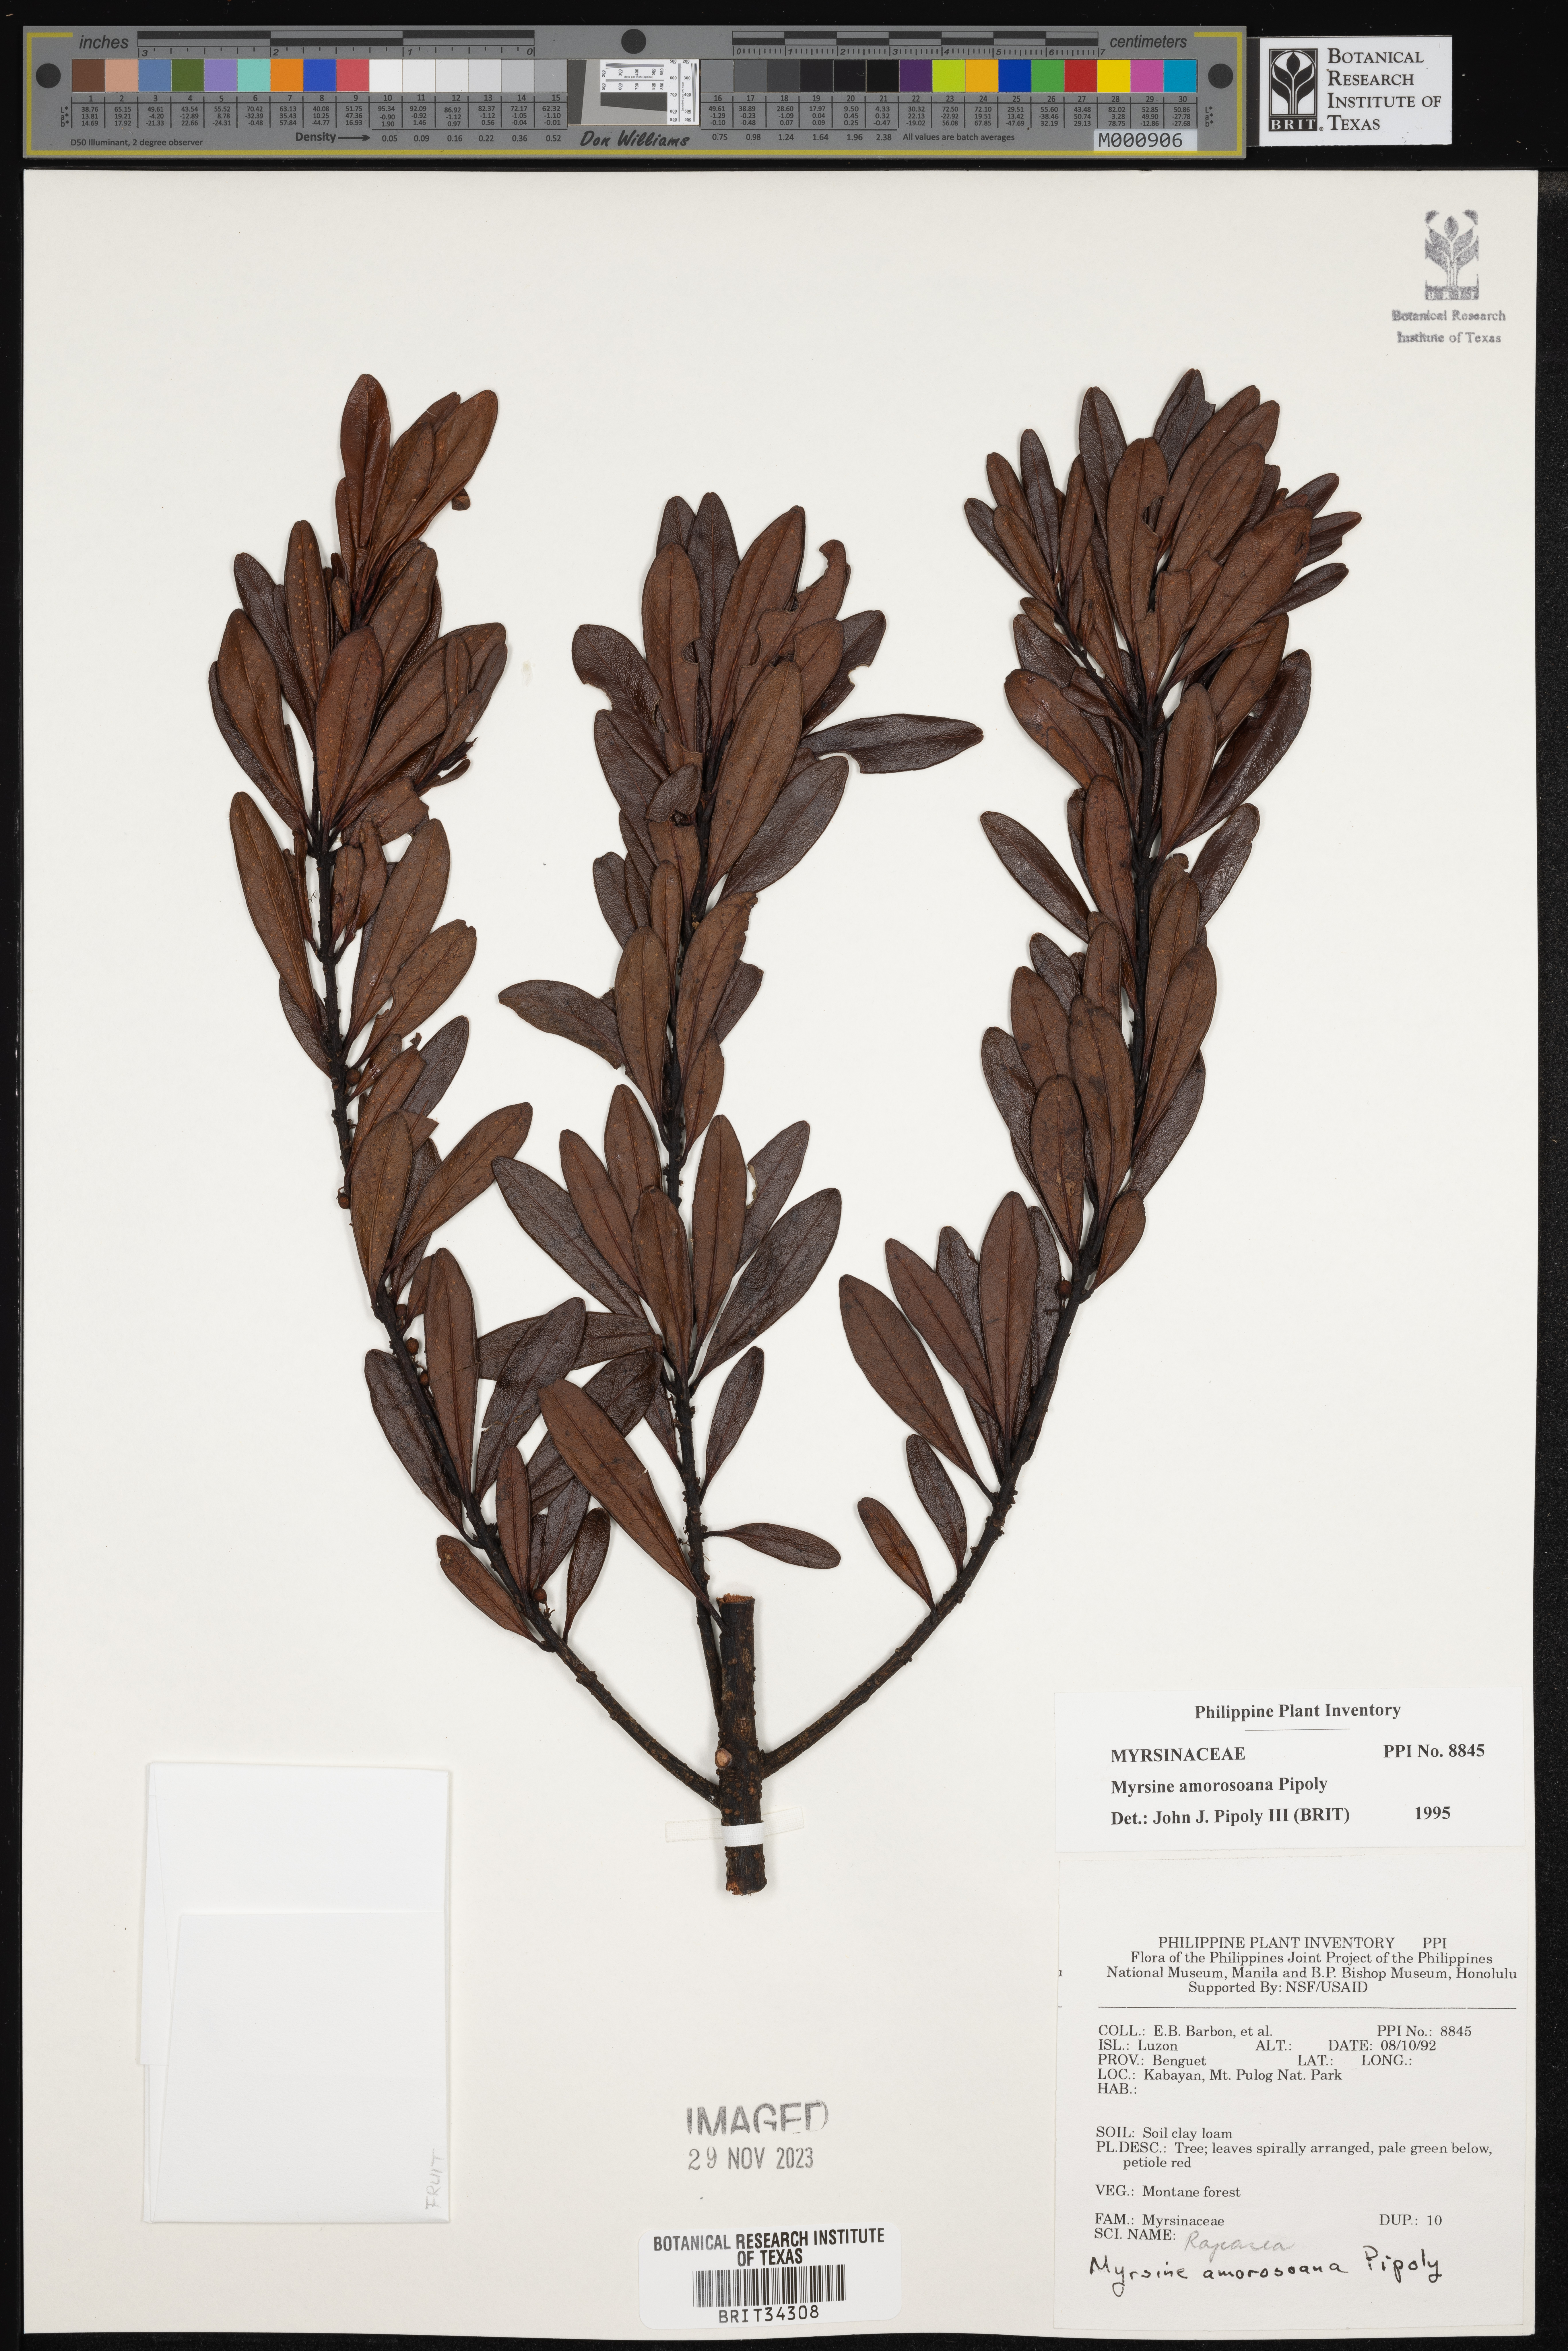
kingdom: Plantae
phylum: Tracheophyta
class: Magnoliopsida
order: Ericales
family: Primulaceae
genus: Myrsine
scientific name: Myrsine amorosoana
